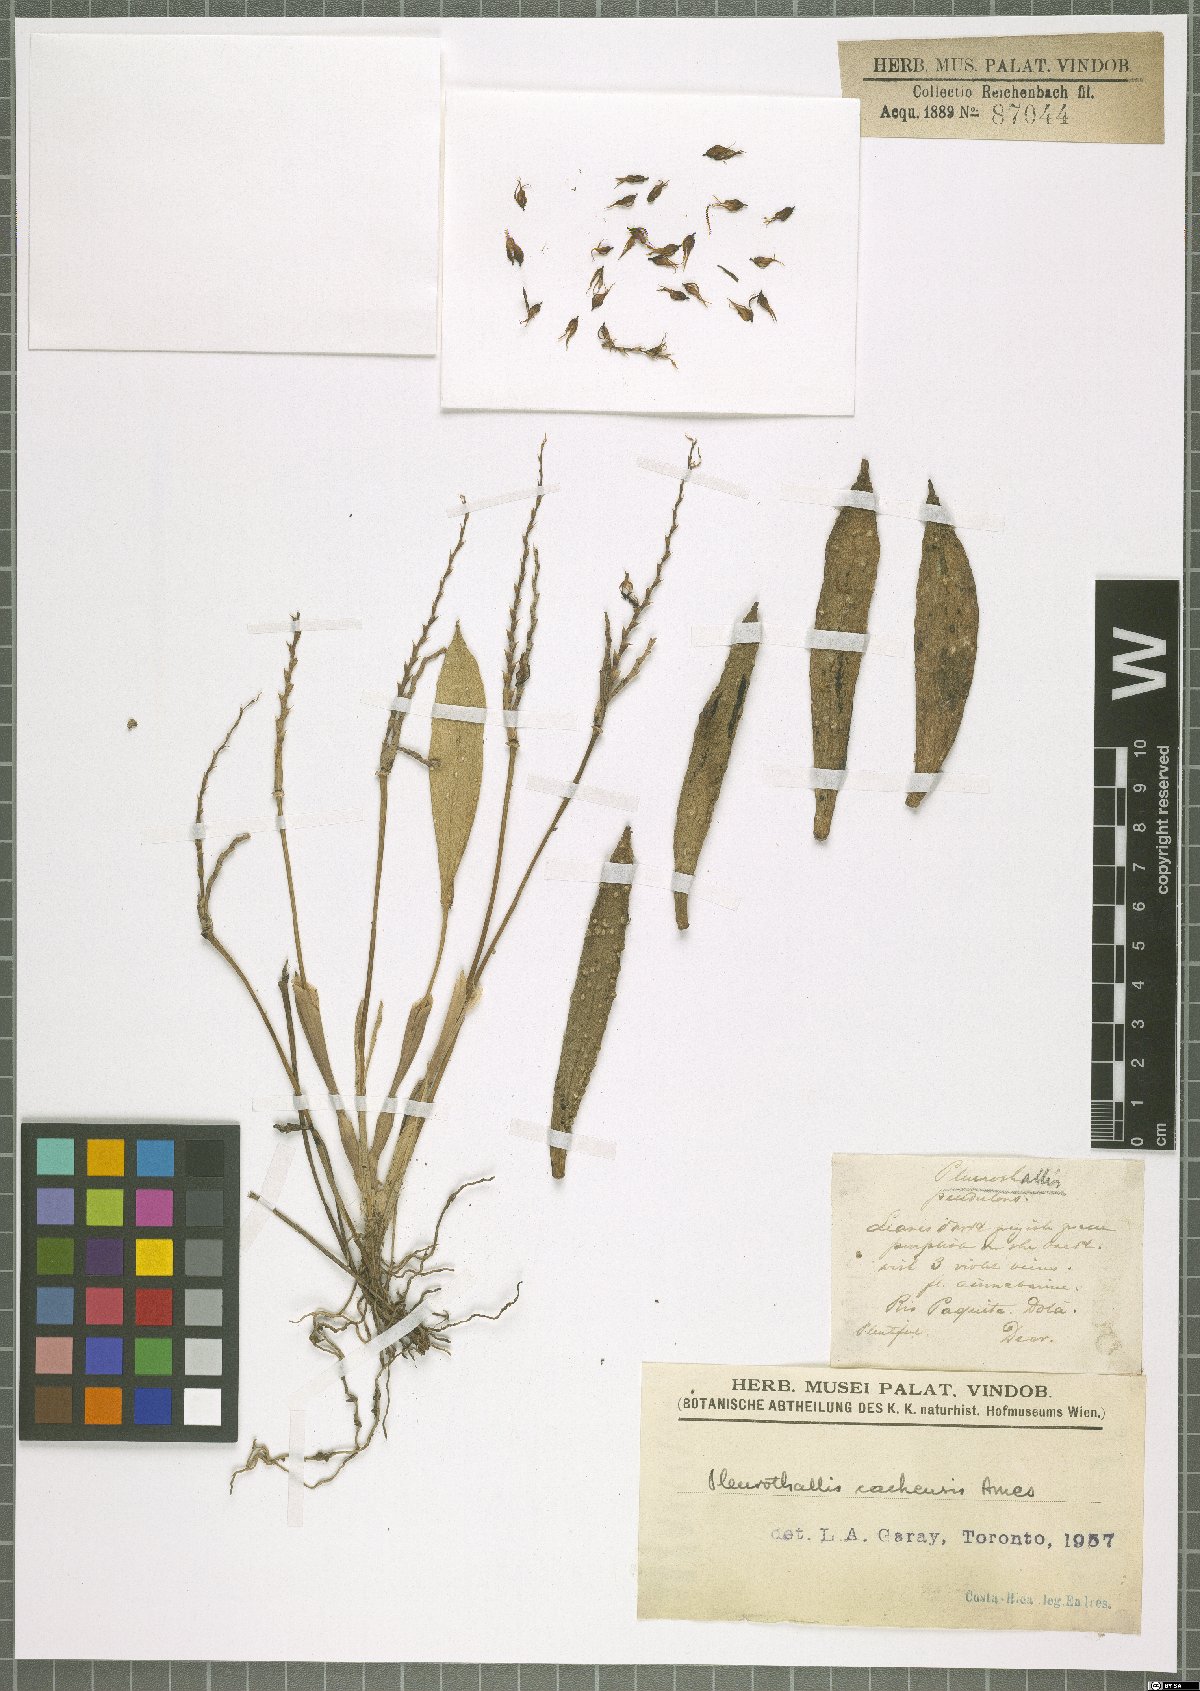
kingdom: Plantae
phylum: Tracheophyta
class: Liliopsida
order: Asparagales
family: Orchidaceae
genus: Acianthera
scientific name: Acianthera cachensis
